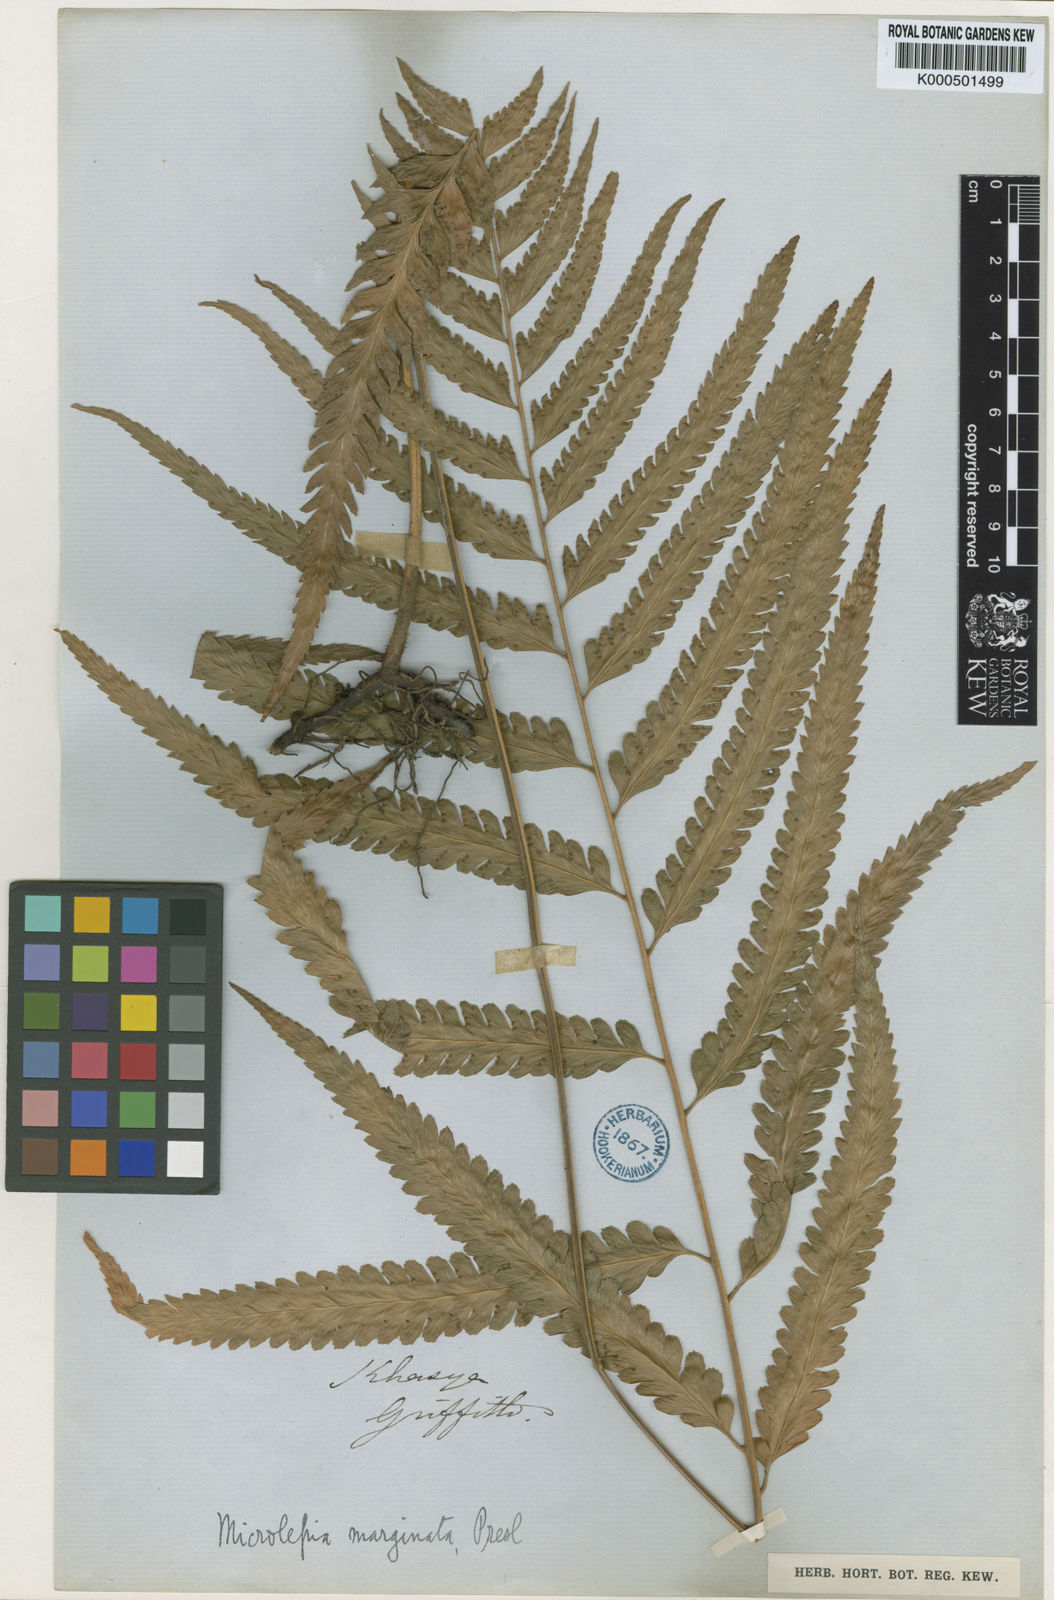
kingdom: Plantae
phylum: Tracheophyta
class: Polypodiopsida
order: Polypodiales
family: Dennstaedtiaceae
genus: Microlepia
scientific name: Microlepia
